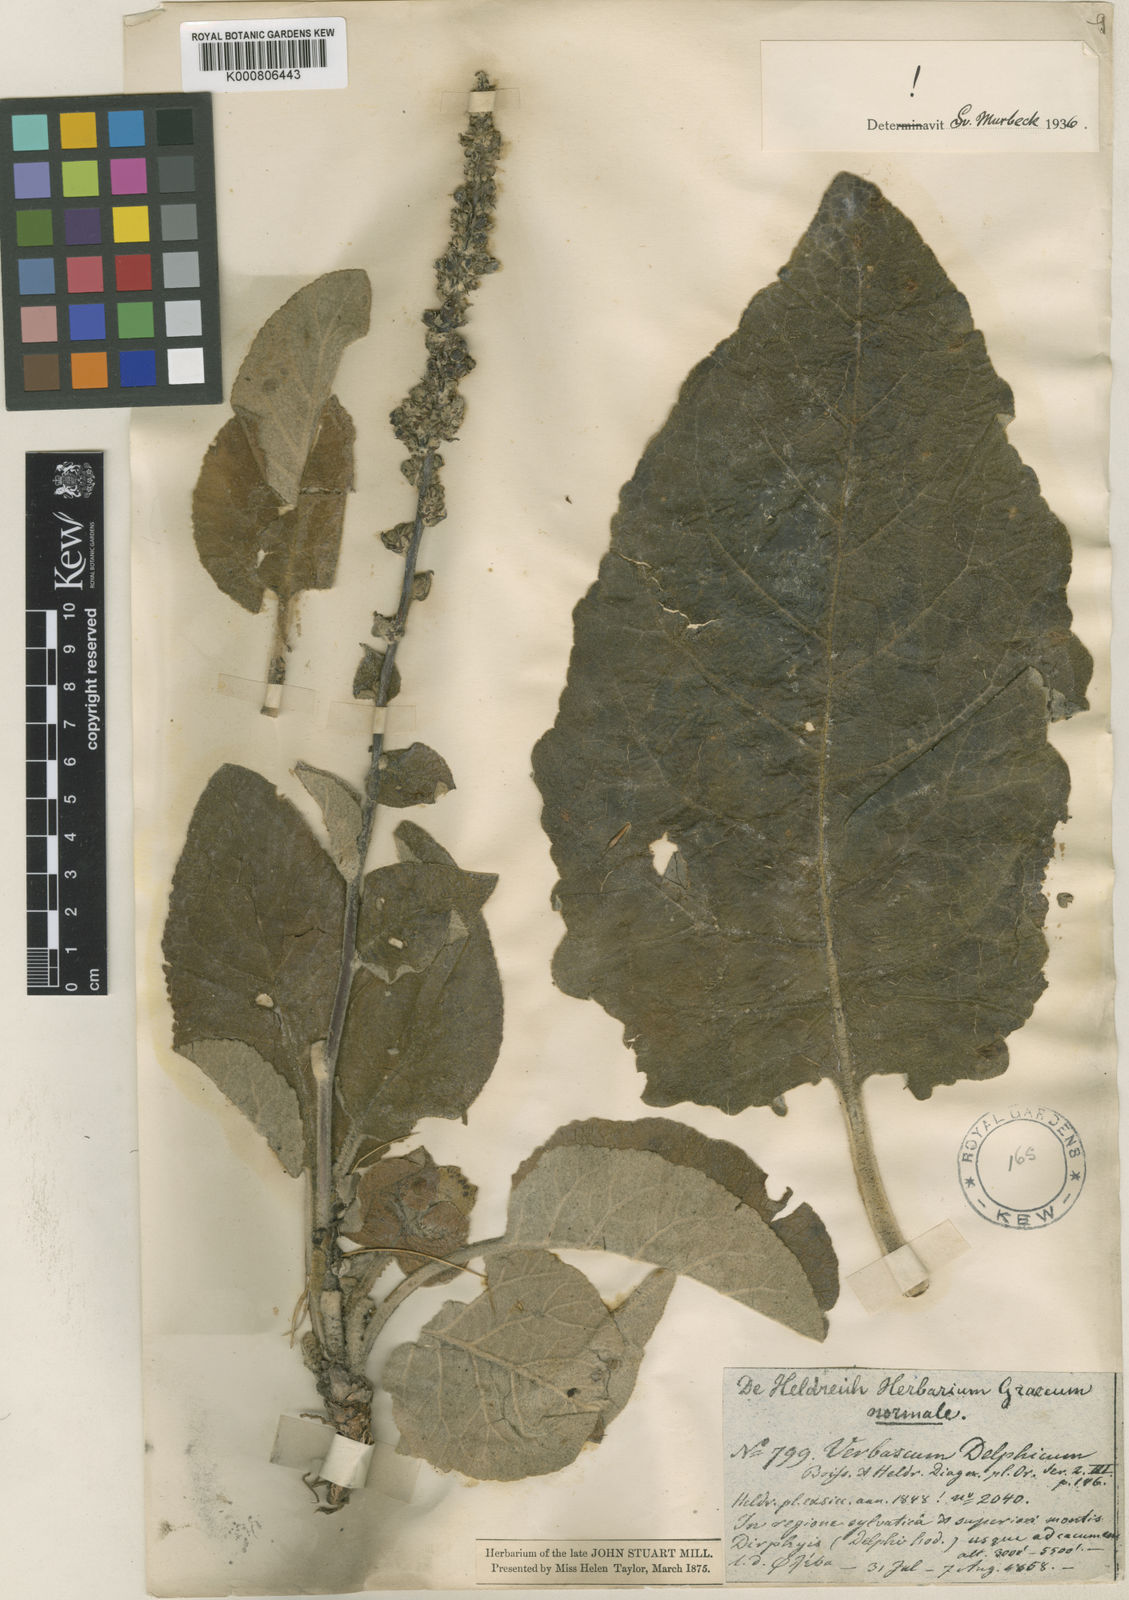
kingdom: Plantae
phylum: Tracheophyta
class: Magnoliopsida
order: Lamiales
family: Scrophulariaceae
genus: Verbascum
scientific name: Verbascum delphicum
